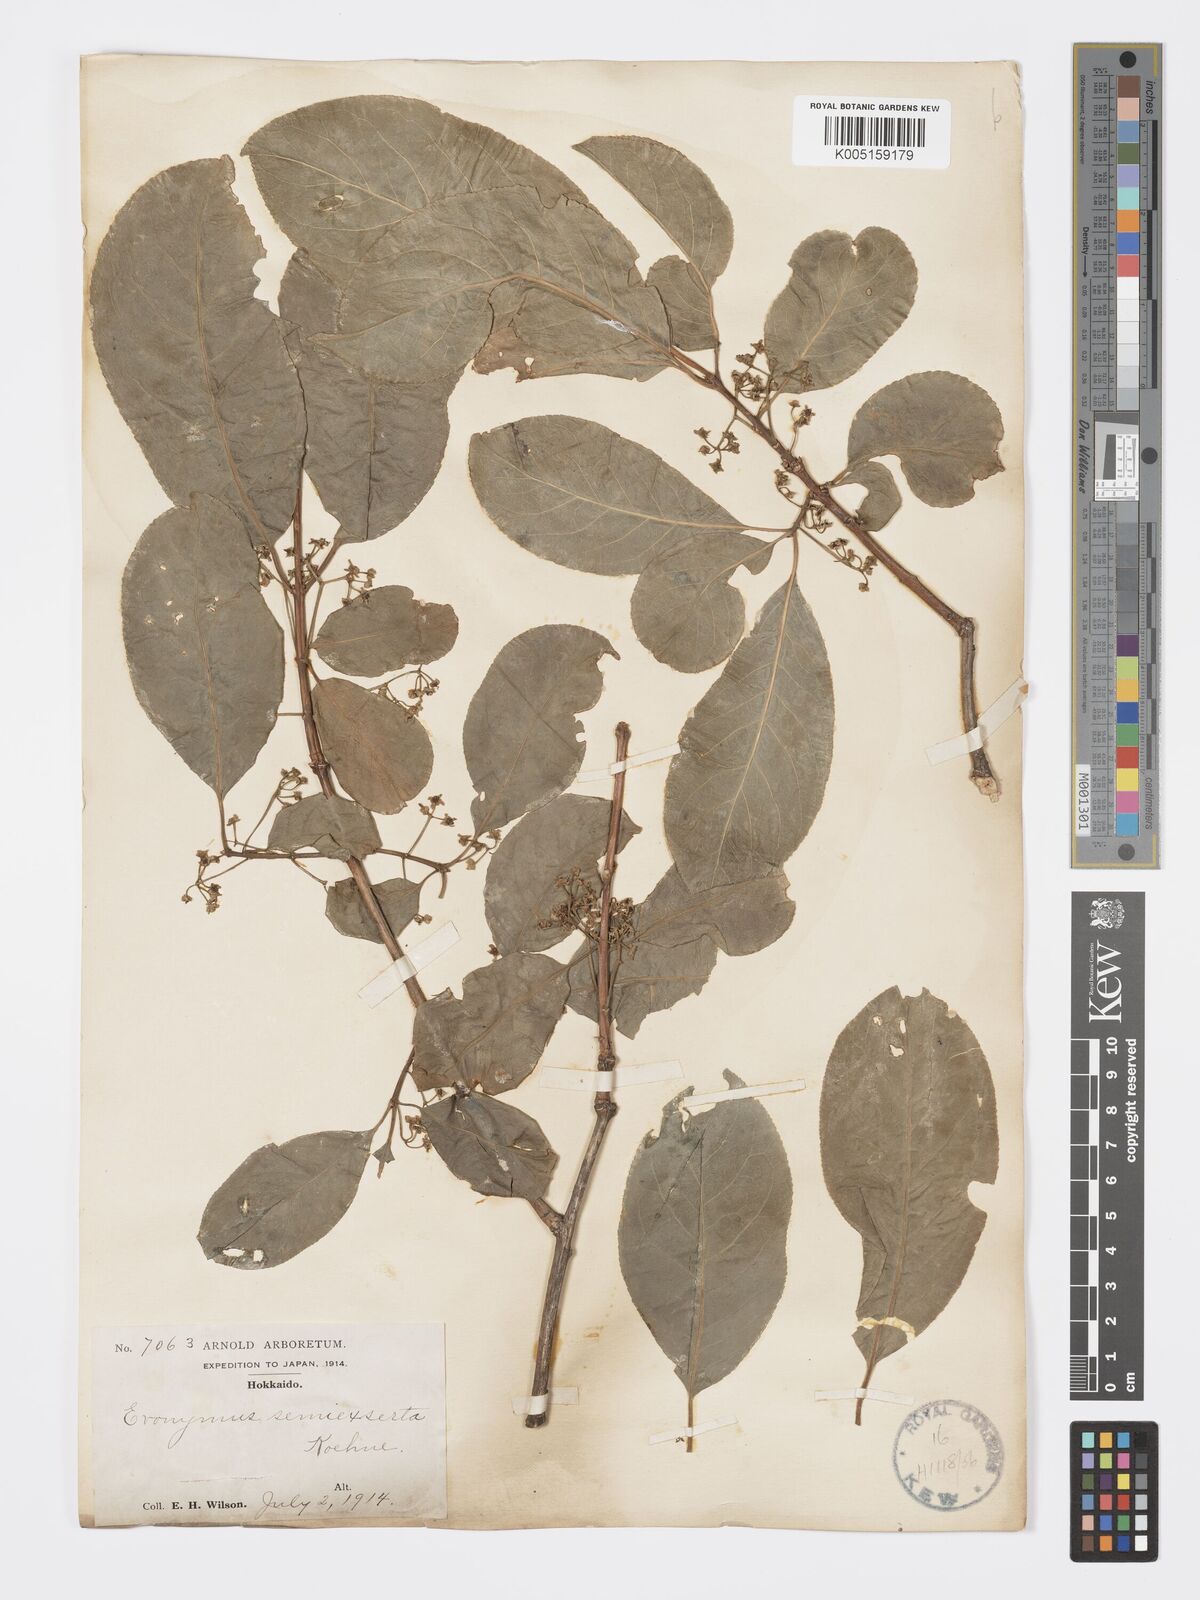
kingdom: Plantae
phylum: Tracheophyta
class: Magnoliopsida
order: Celastrales
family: Celastraceae
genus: Euonymus
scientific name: Euonymus hamiltonianus
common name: Hamilton's spindletree
